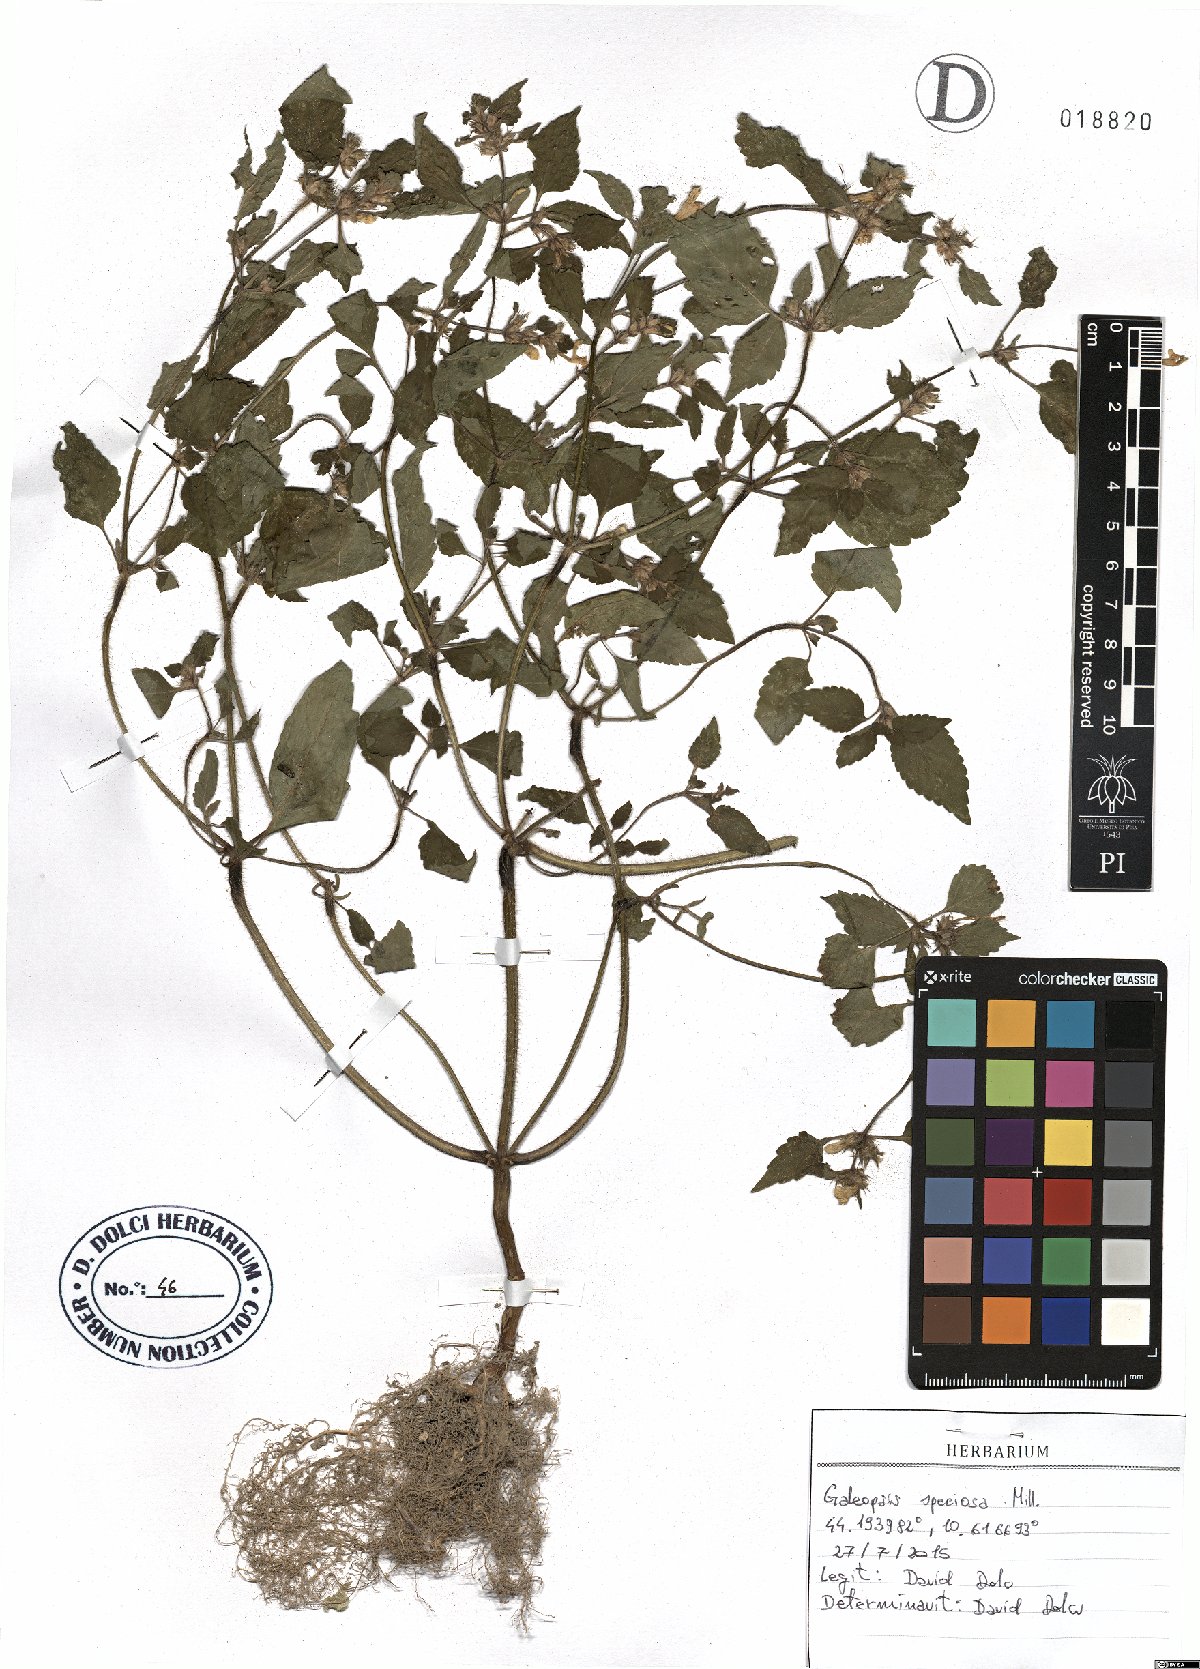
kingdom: Plantae
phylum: Tracheophyta
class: Magnoliopsida
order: Lamiales
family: Lamiaceae
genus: Galeopsis
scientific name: Galeopsis speciosa
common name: Large-flowered hemp-nettle
